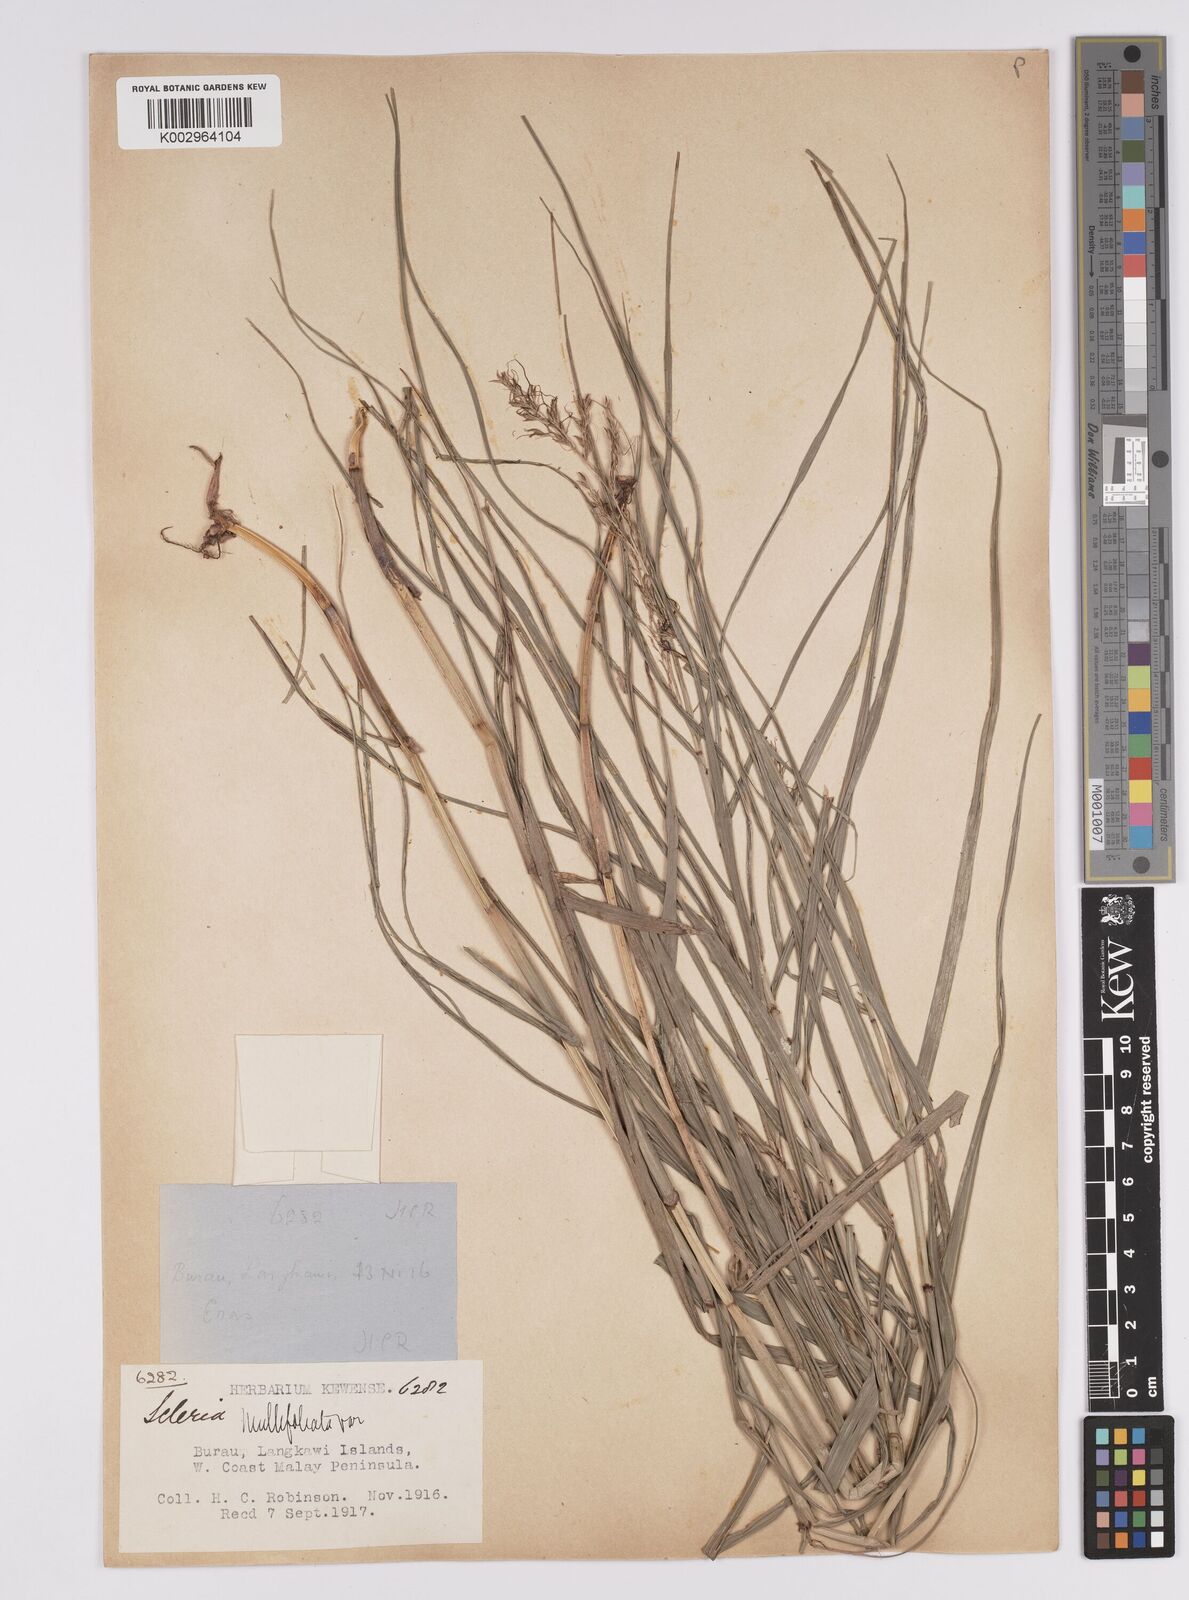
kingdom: Plantae
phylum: Tracheophyta
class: Liliopsida
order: Poales
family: Cyperaceae
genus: Scleria
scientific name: Scleria purpurascens
